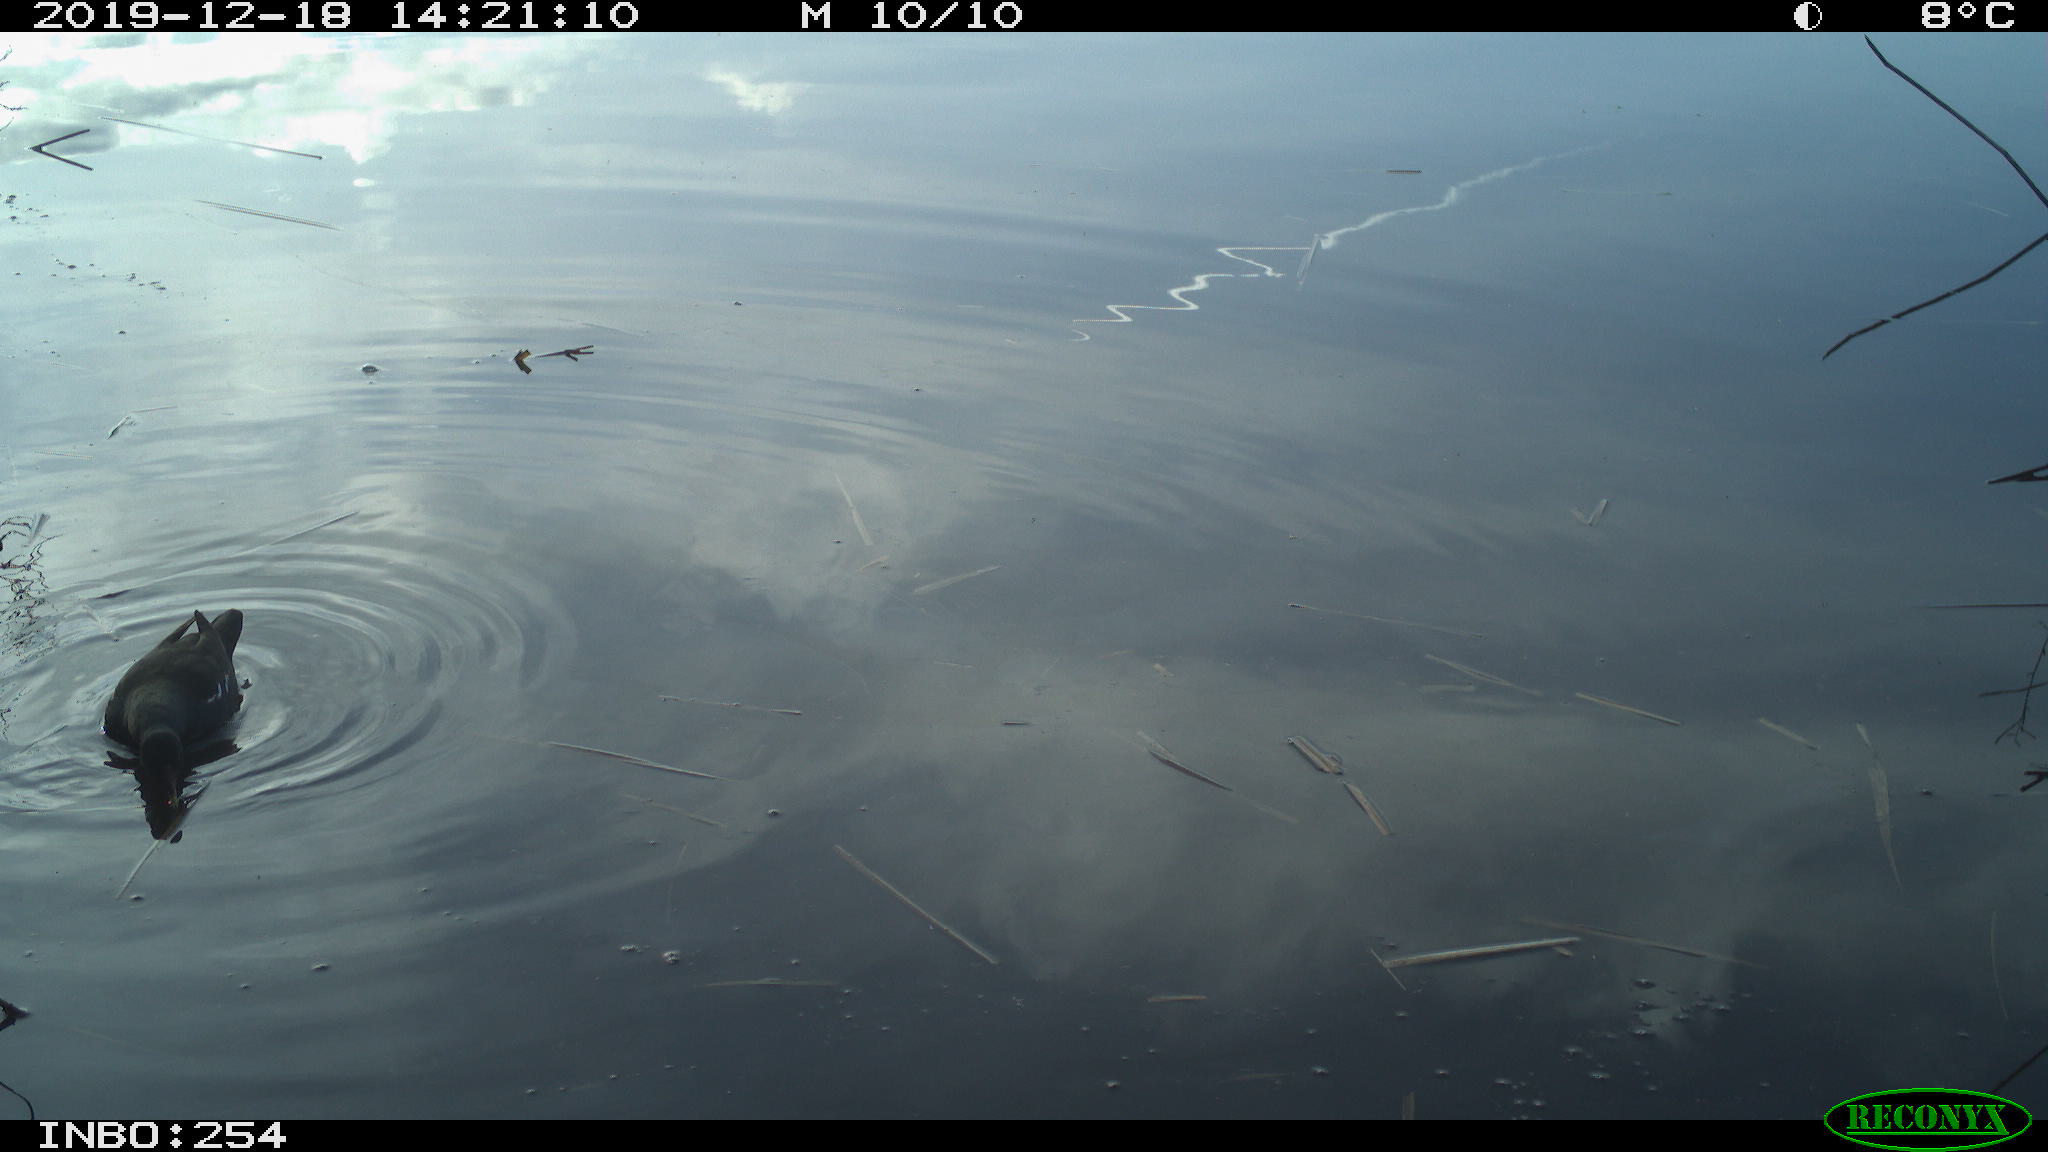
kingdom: Animalia
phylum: Chordata
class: Aves
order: Gruiformes
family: Rallidae
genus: Gallinula
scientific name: Gallinula chloropus
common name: Common moorhen
